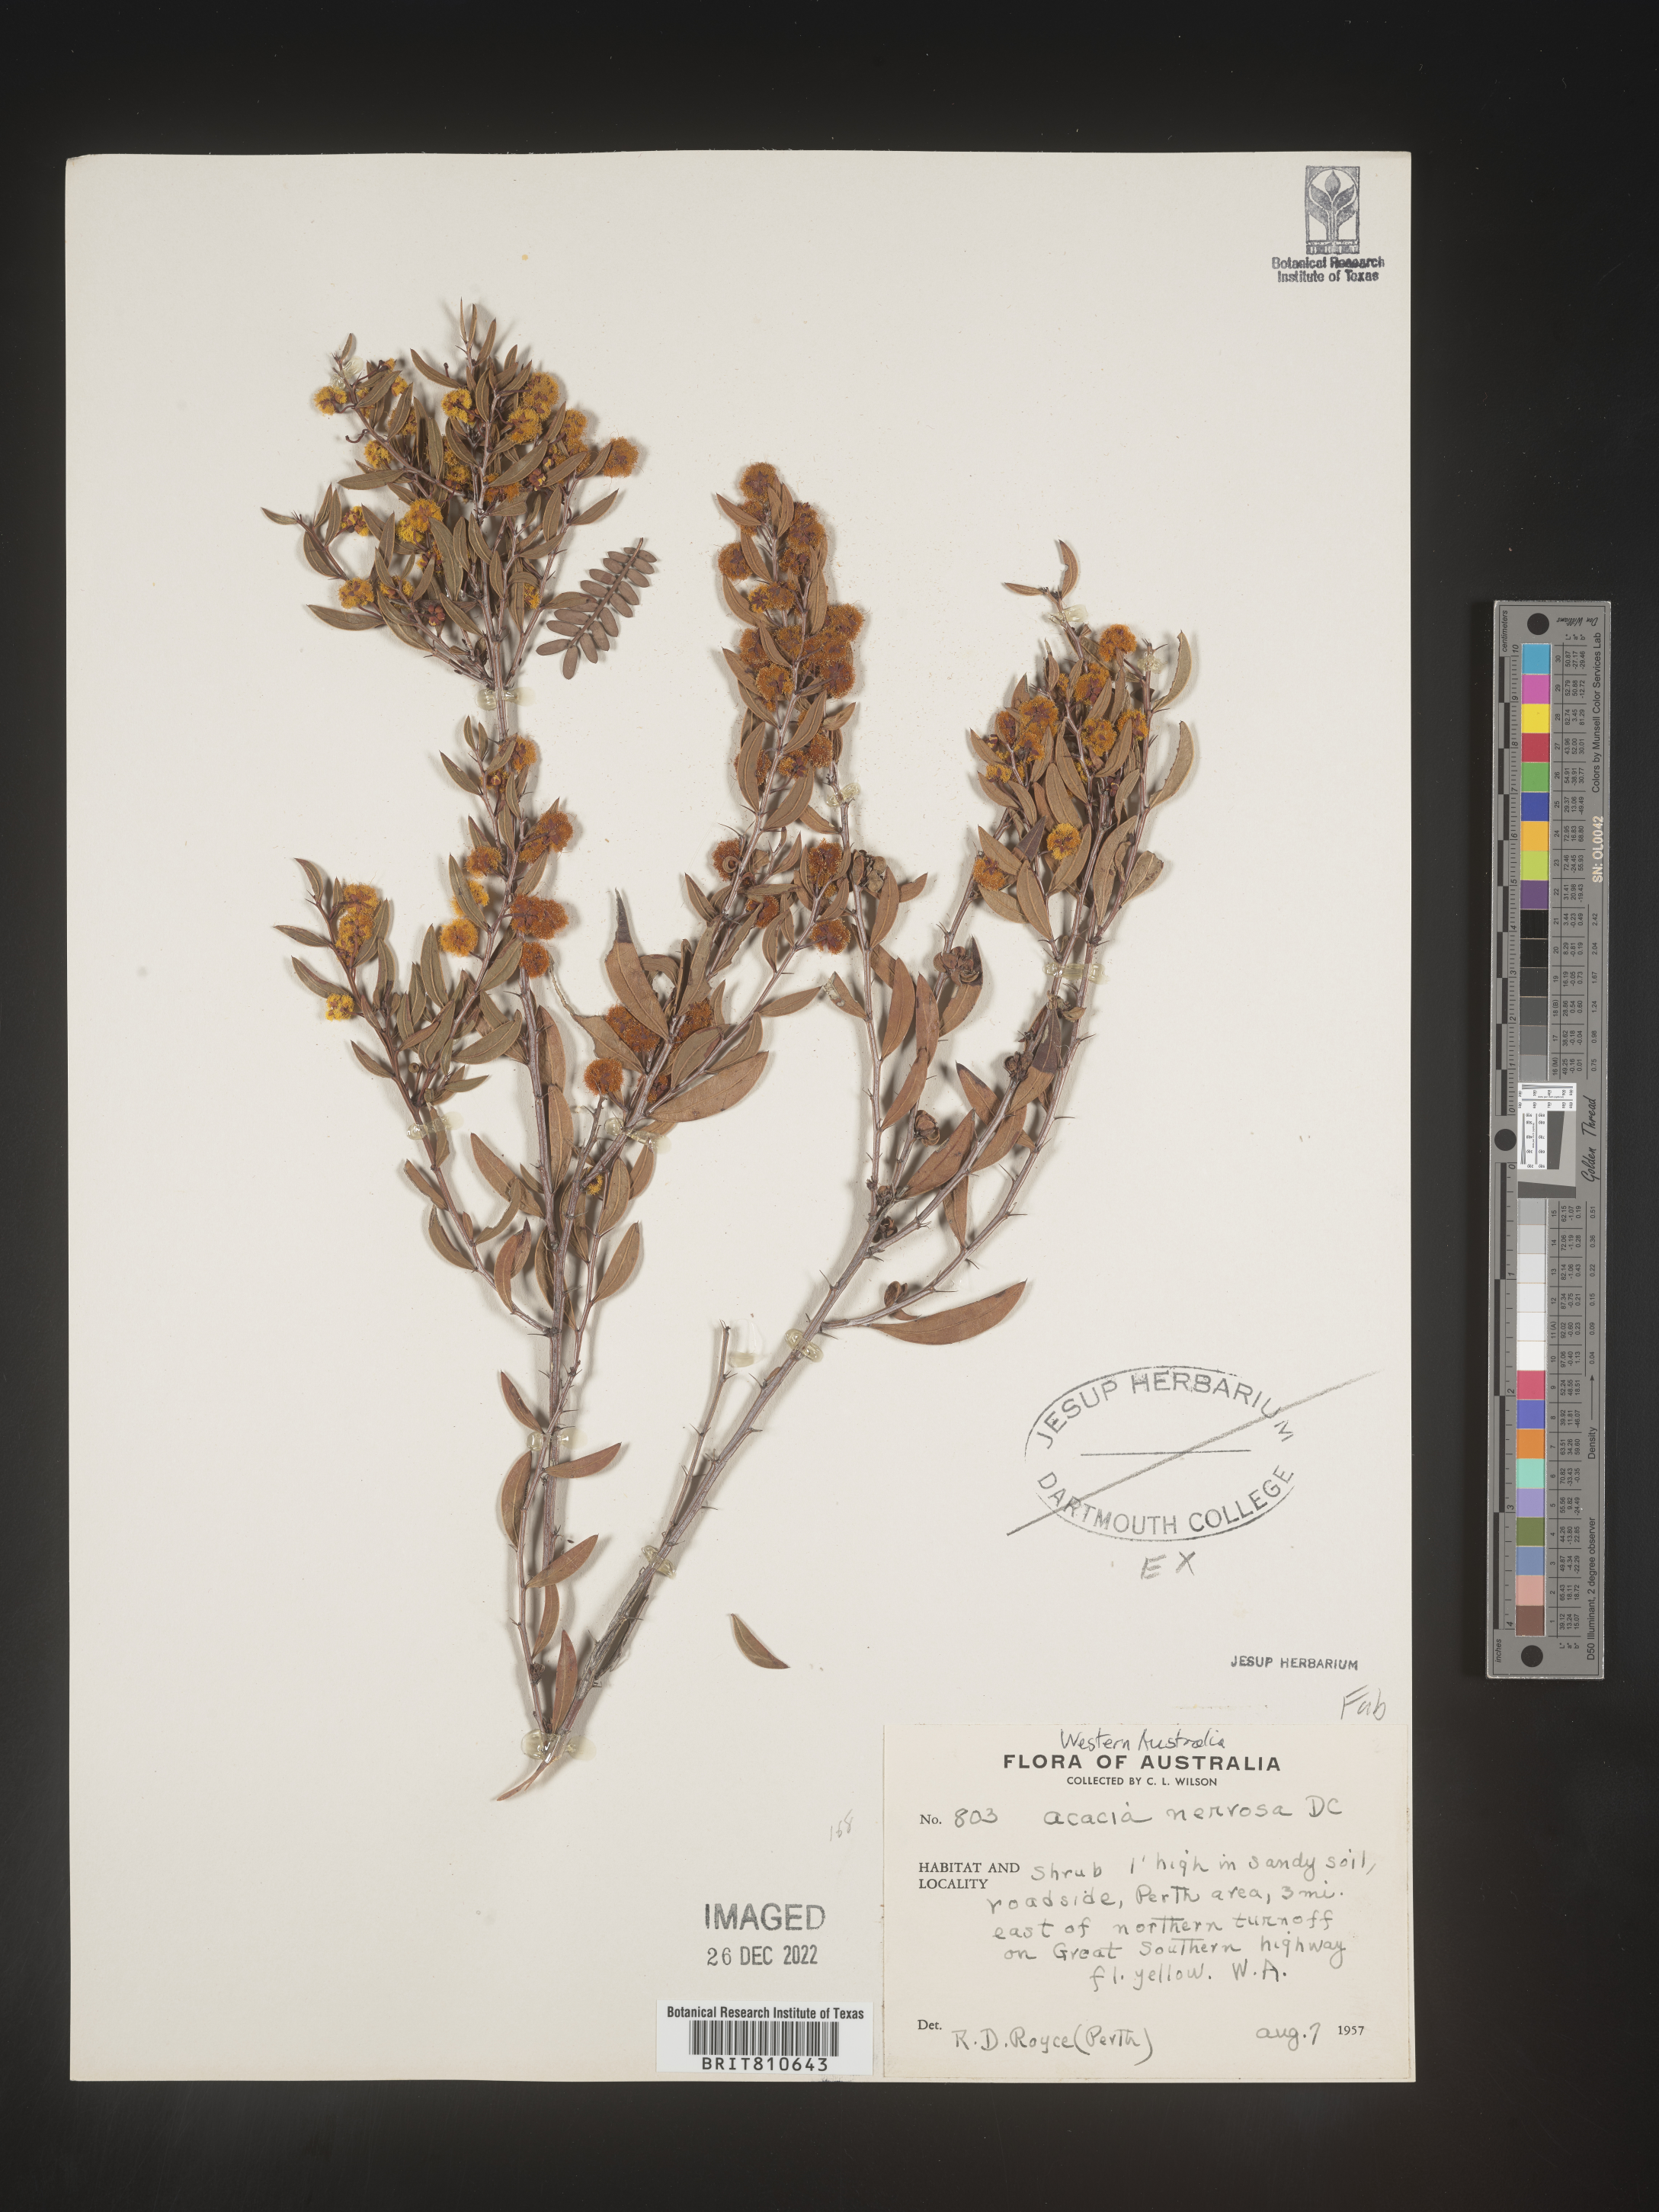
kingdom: Plantae
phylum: Tracheophyta
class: Magnoliopsida
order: Fabales
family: Fabaceae
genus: Acacia
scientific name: Acacia
